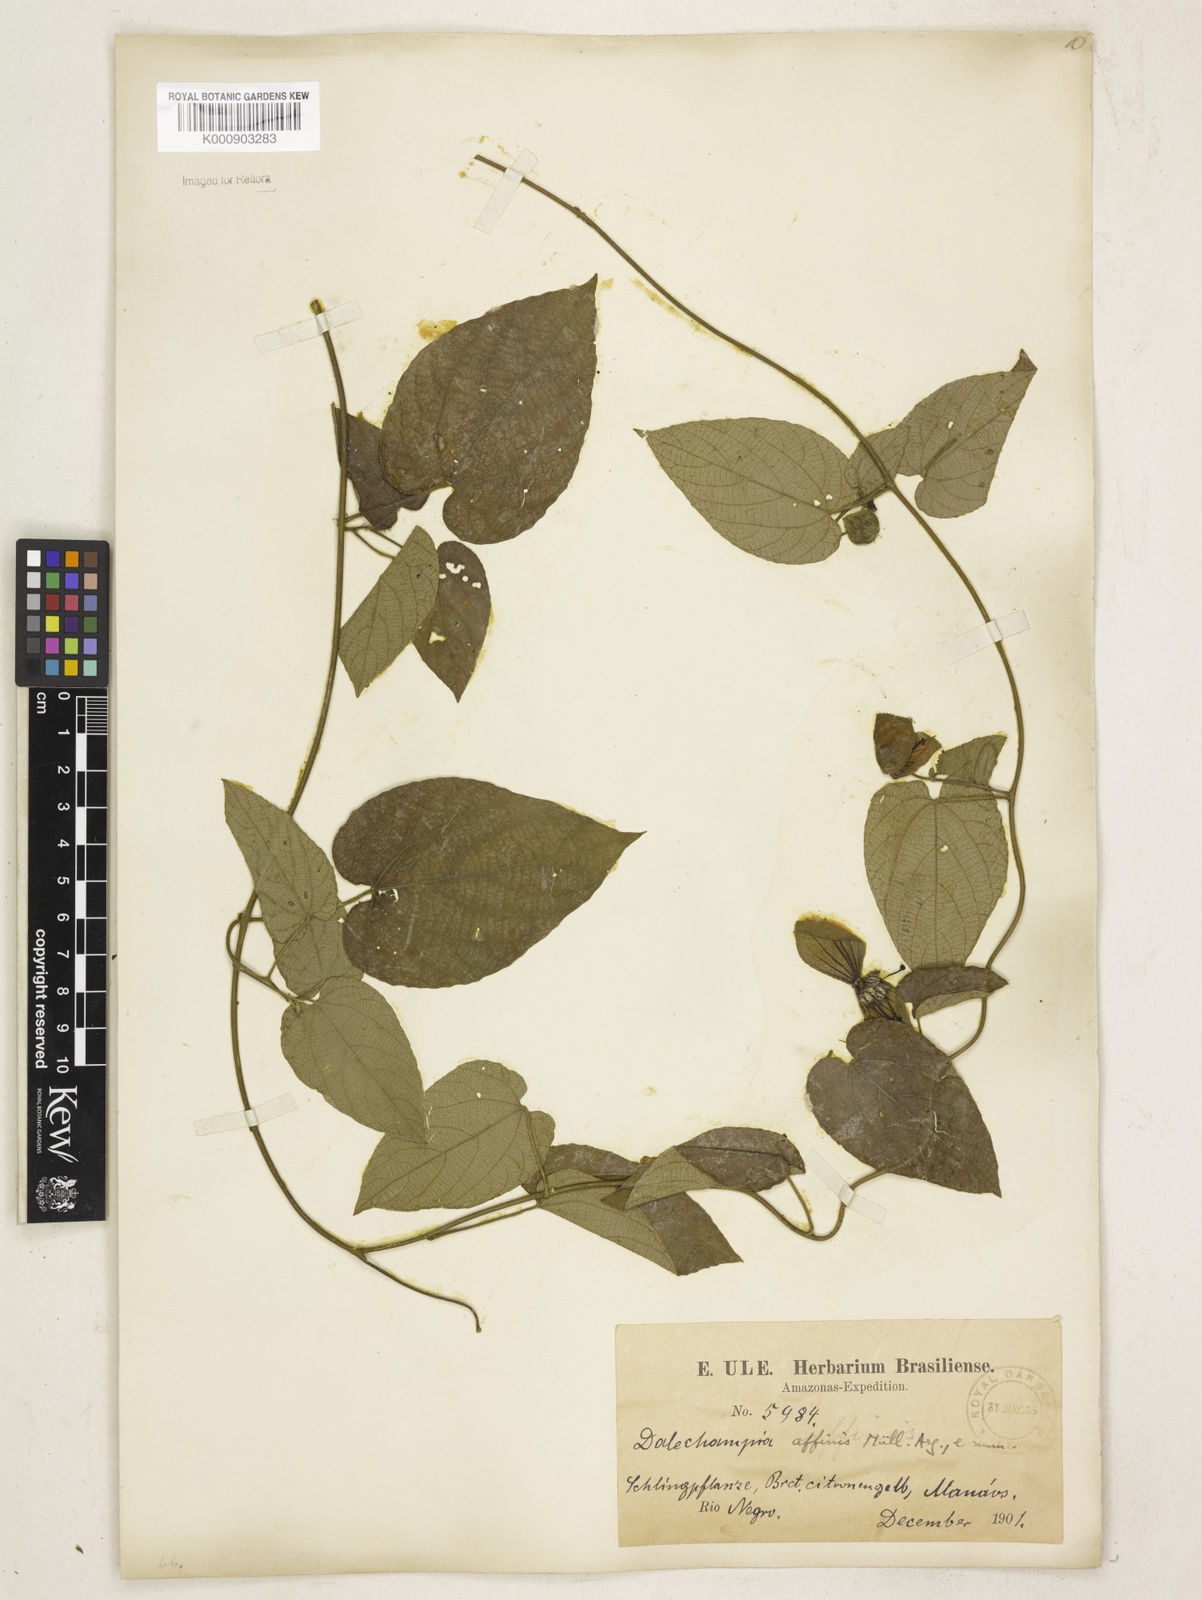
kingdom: Plantae
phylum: Tracheophyta
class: Magnoliopsida
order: Malpighiales
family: Euphorbiaceae
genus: Dalechampia
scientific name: Dalechampia
